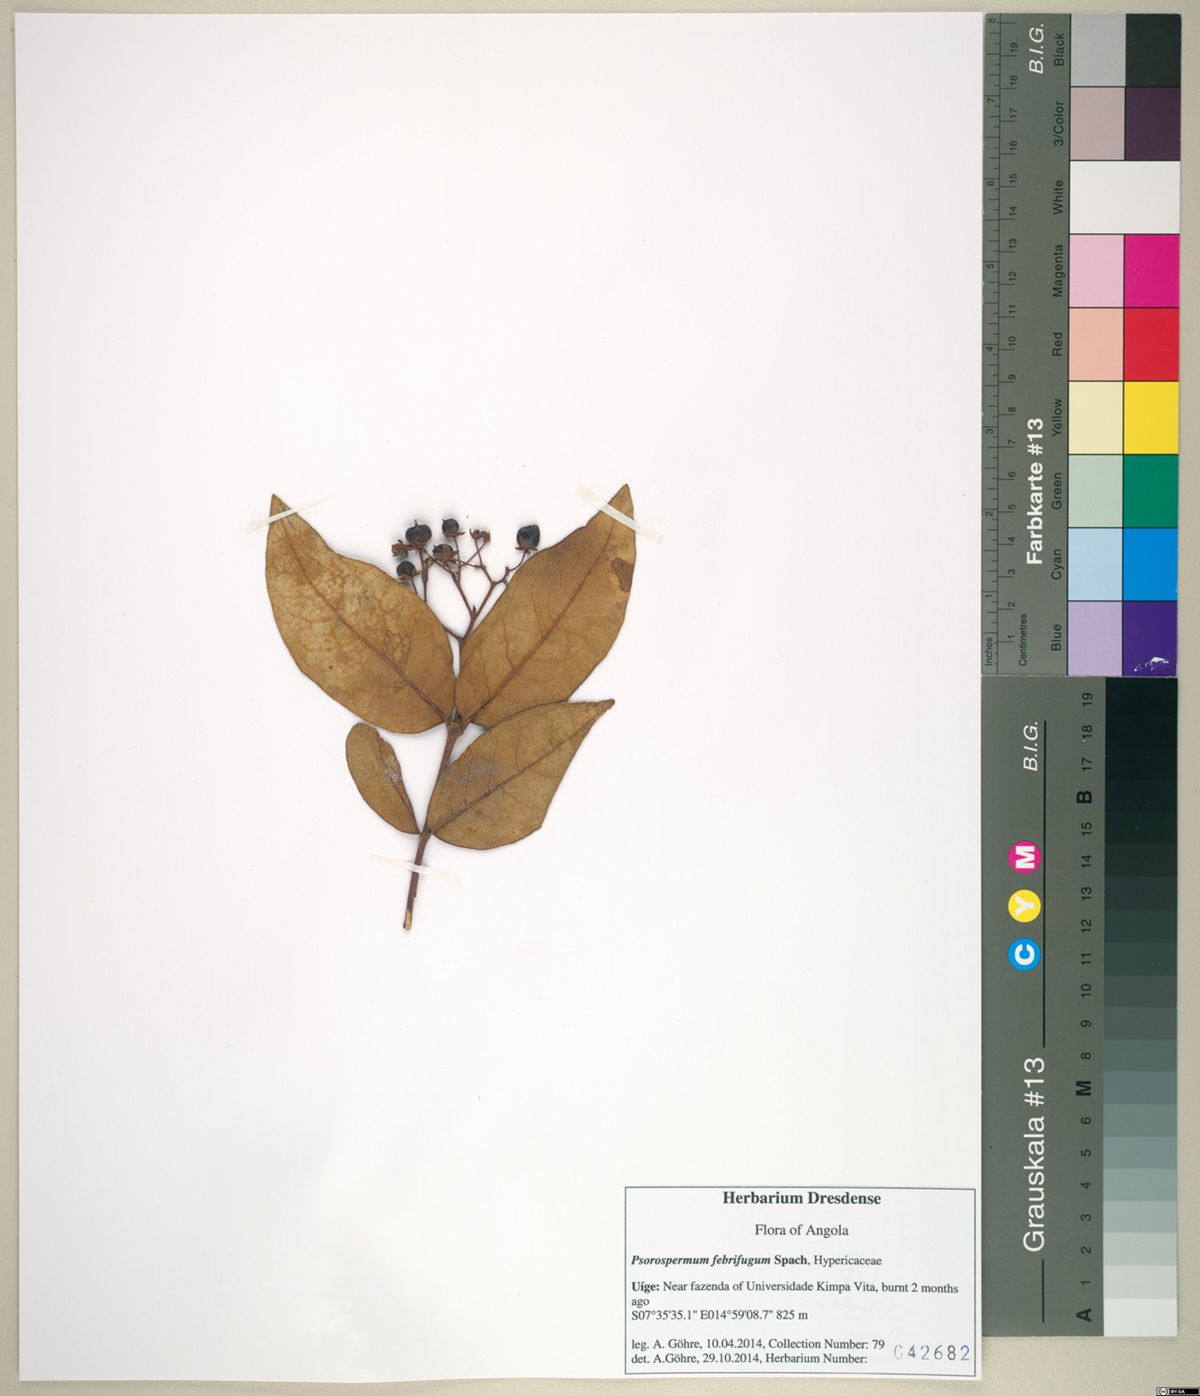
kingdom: Plantae
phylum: Tracheophyta
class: Magnoliopsida
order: Malpighiales
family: Hypericaceae
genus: Psorospermum
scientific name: Psorospermum febrifugum
